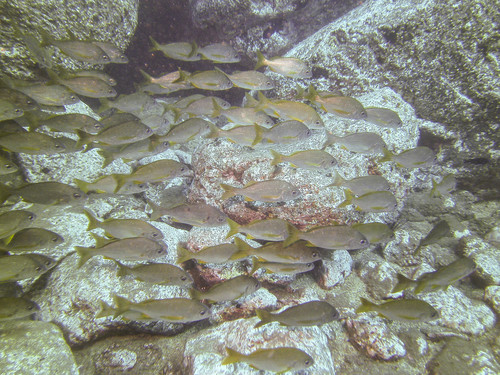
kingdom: Animalia
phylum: Chordata
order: Perciformes
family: Haemulidae
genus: Pomadasys
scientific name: Pomadasys incisus
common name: Bastard grunt
